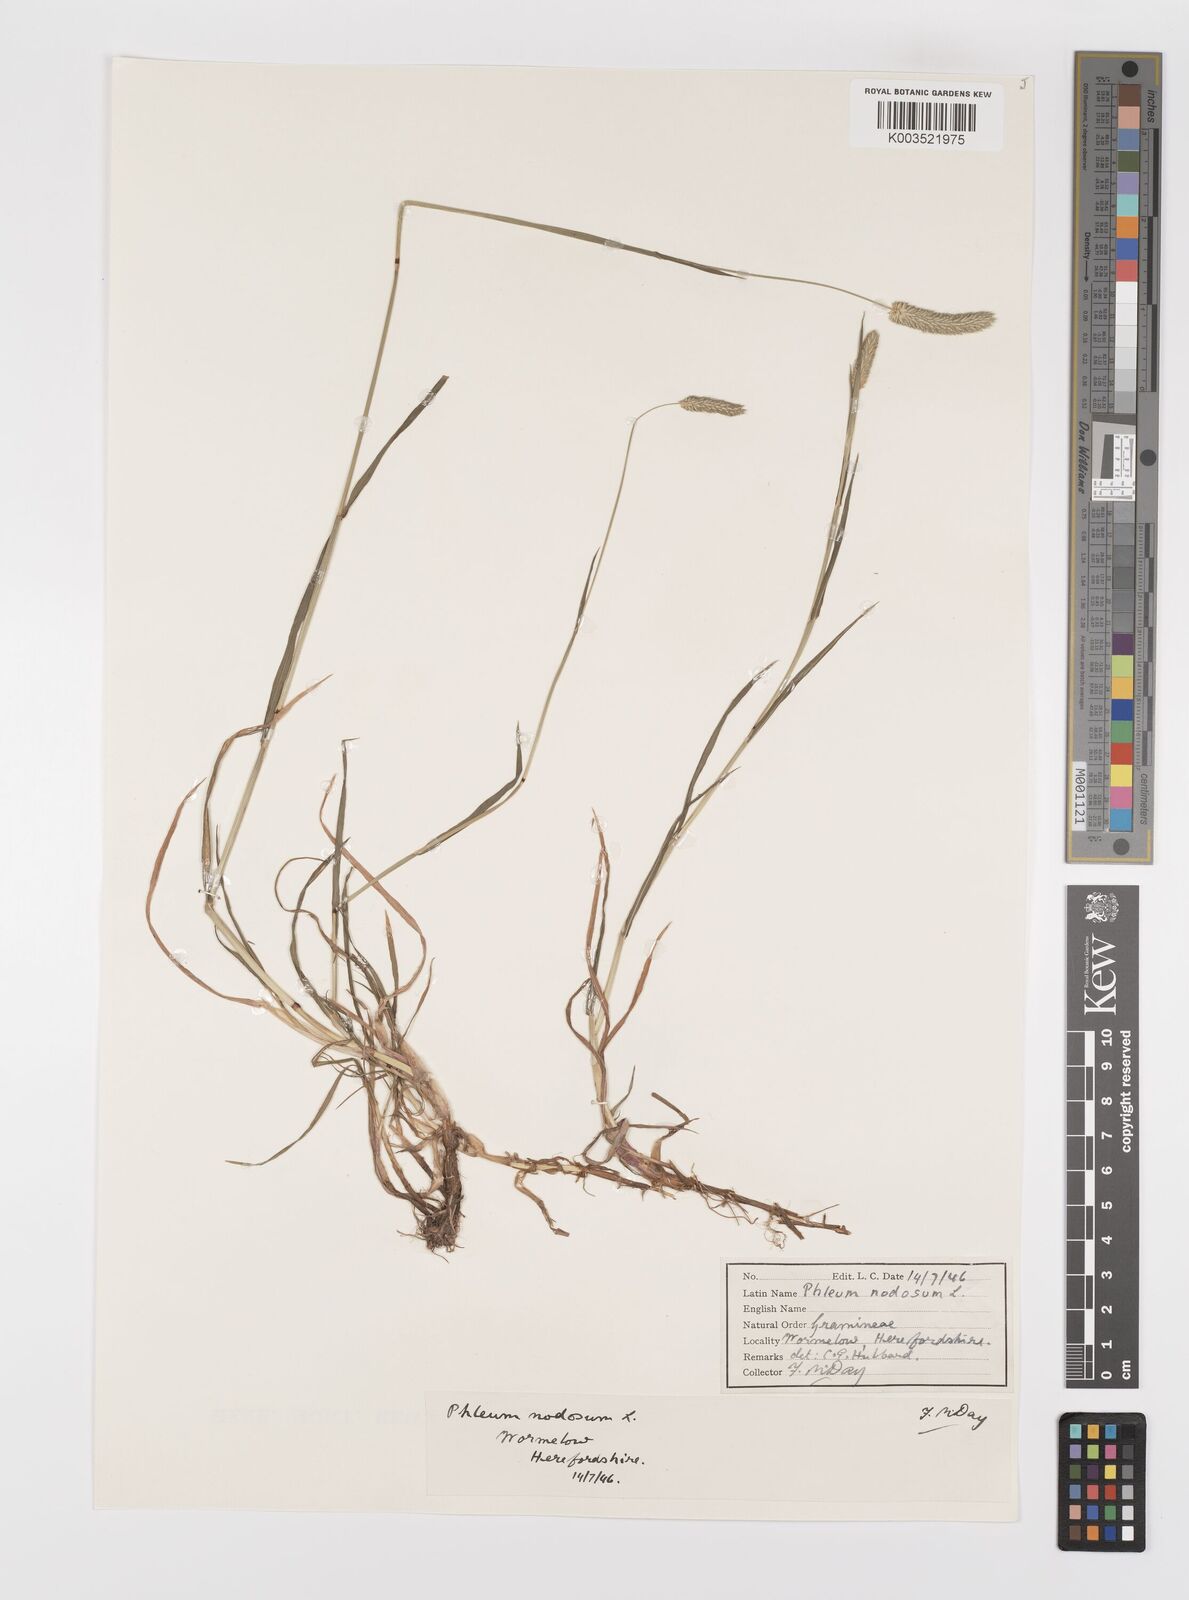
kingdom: Plantae
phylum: Tracheophyta
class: Liliopsida
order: Poales
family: Poaceae
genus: Phleum
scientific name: Phleum bertolonii
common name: Smaller cat's-tail
